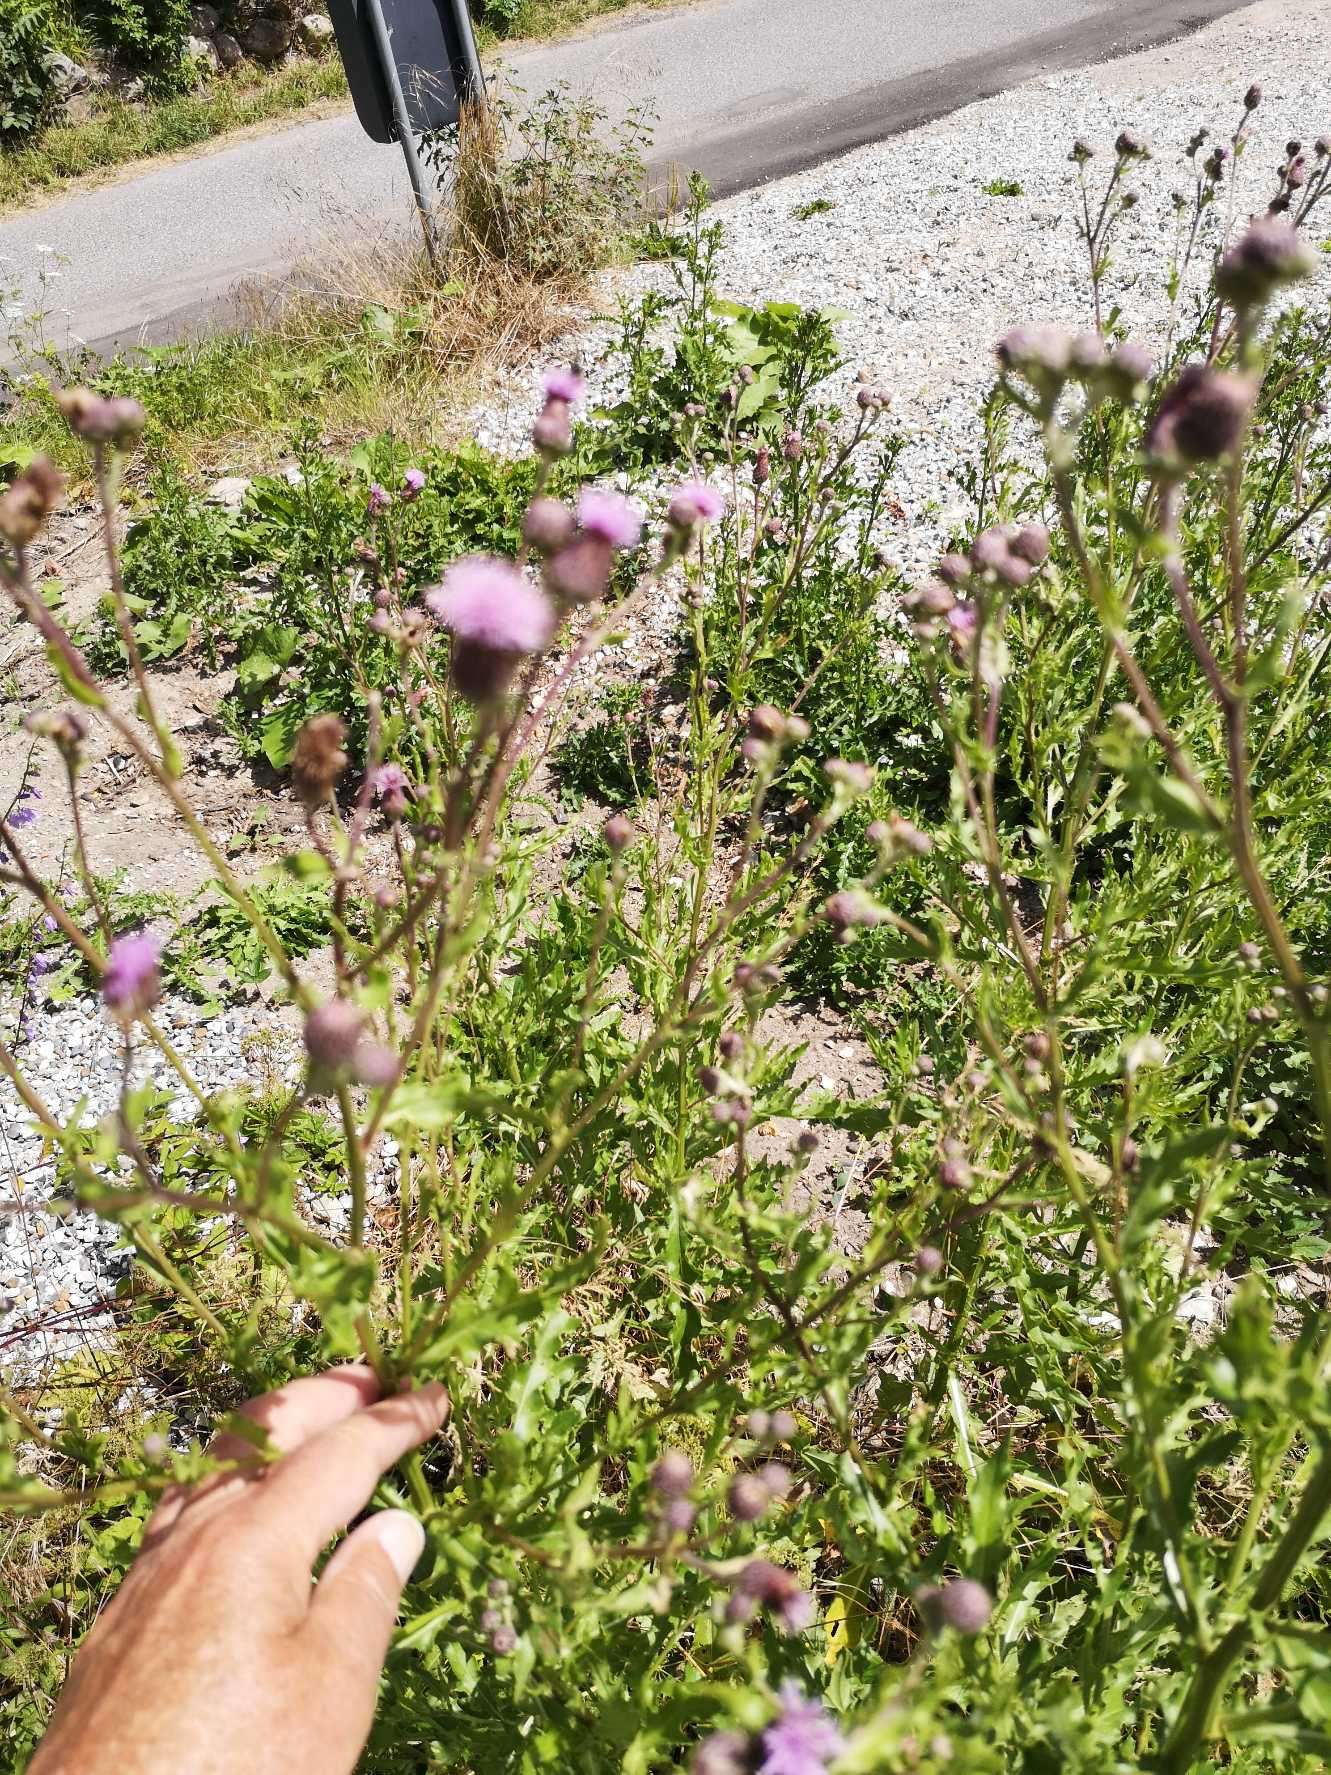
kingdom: Plantae
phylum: Tracheophyta
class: Magnoliopsida
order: Asterales
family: Asteraceae
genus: Cirsium
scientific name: Cirsium arvense
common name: Ager-tidsel
